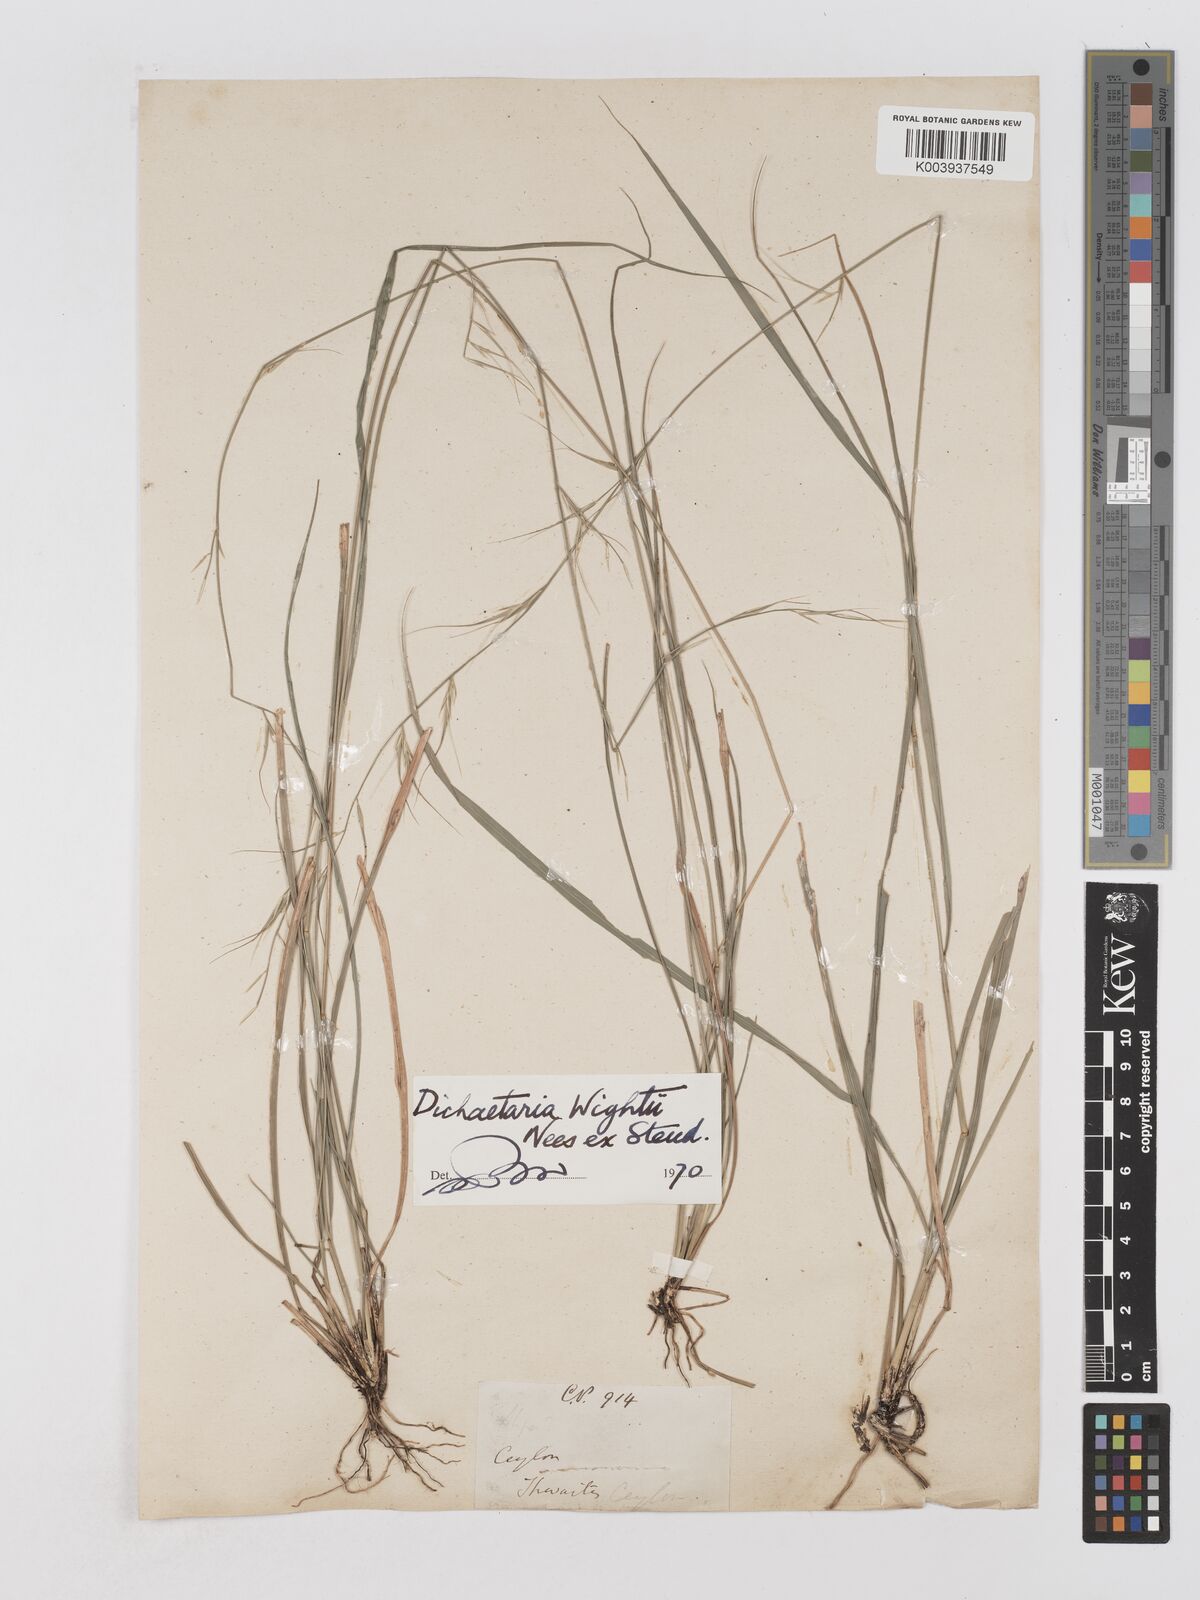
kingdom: Plantae
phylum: Tracheophyta
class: Liliopsida
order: Poales
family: Poaceae
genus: Dichaetaria
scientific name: Dichaetaria wightii
